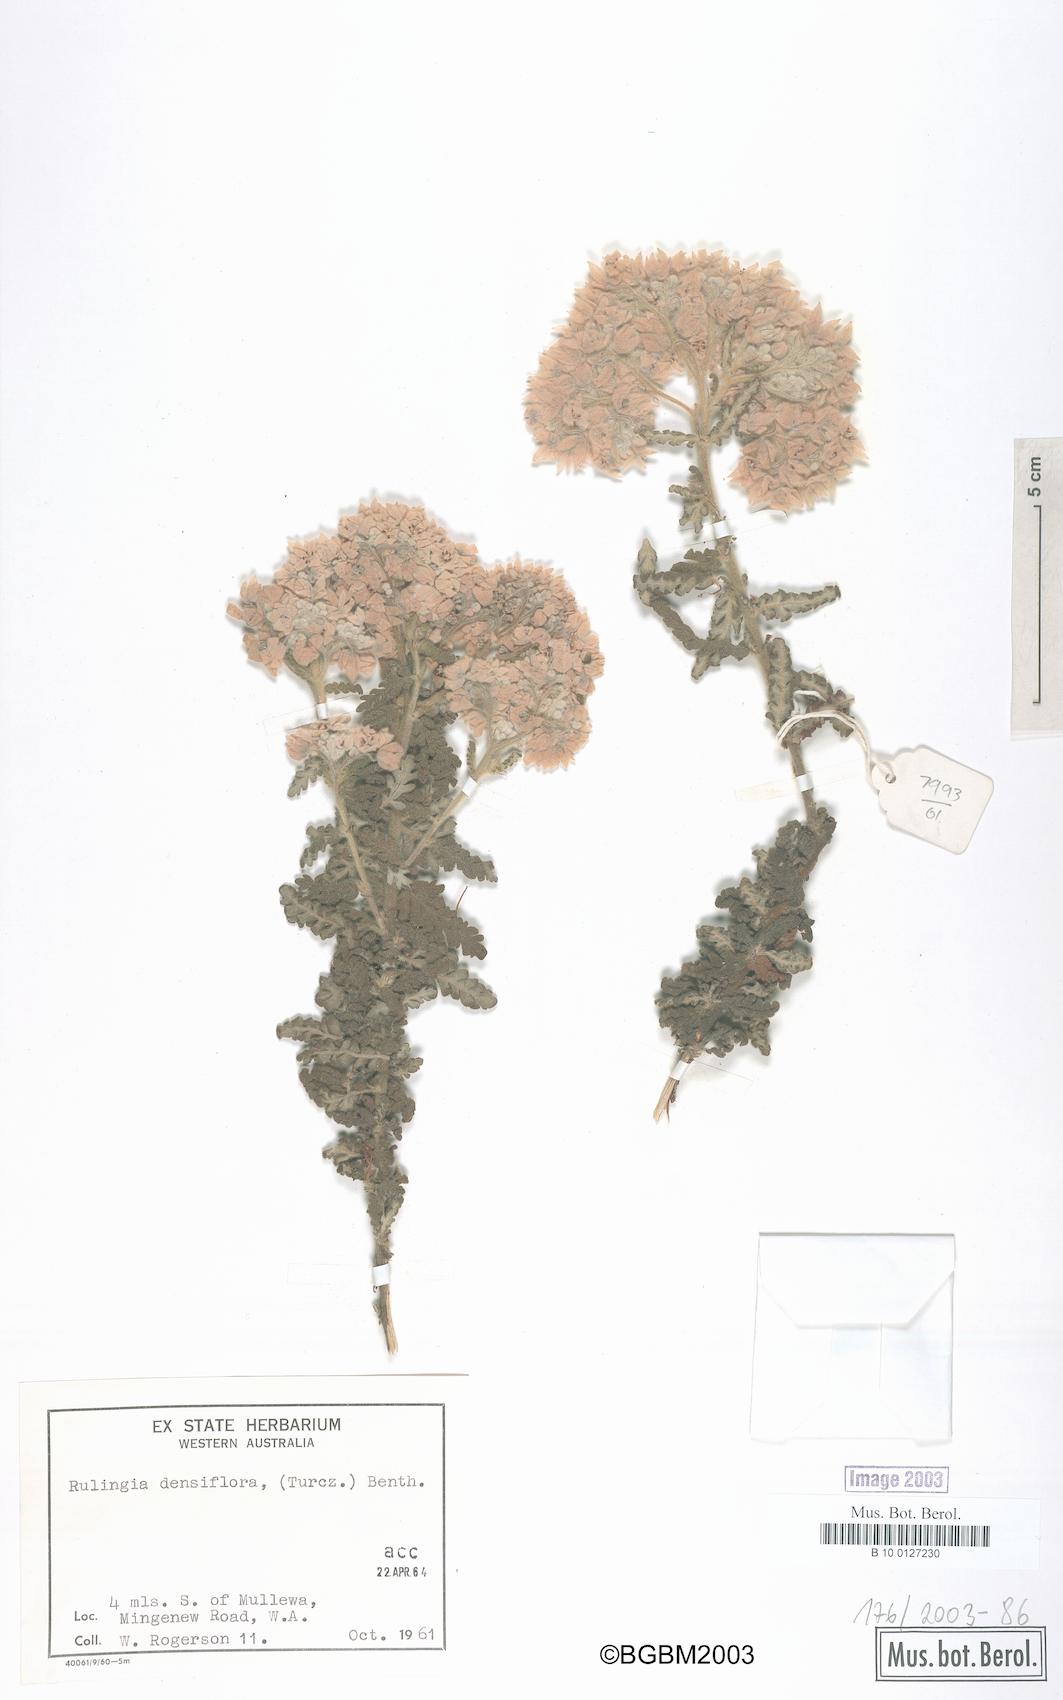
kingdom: Plantae
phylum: Tracheophyta
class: Magnoliopsida
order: Malvales
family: Malvaceae
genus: Commersonia
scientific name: Commersonia densiflora
